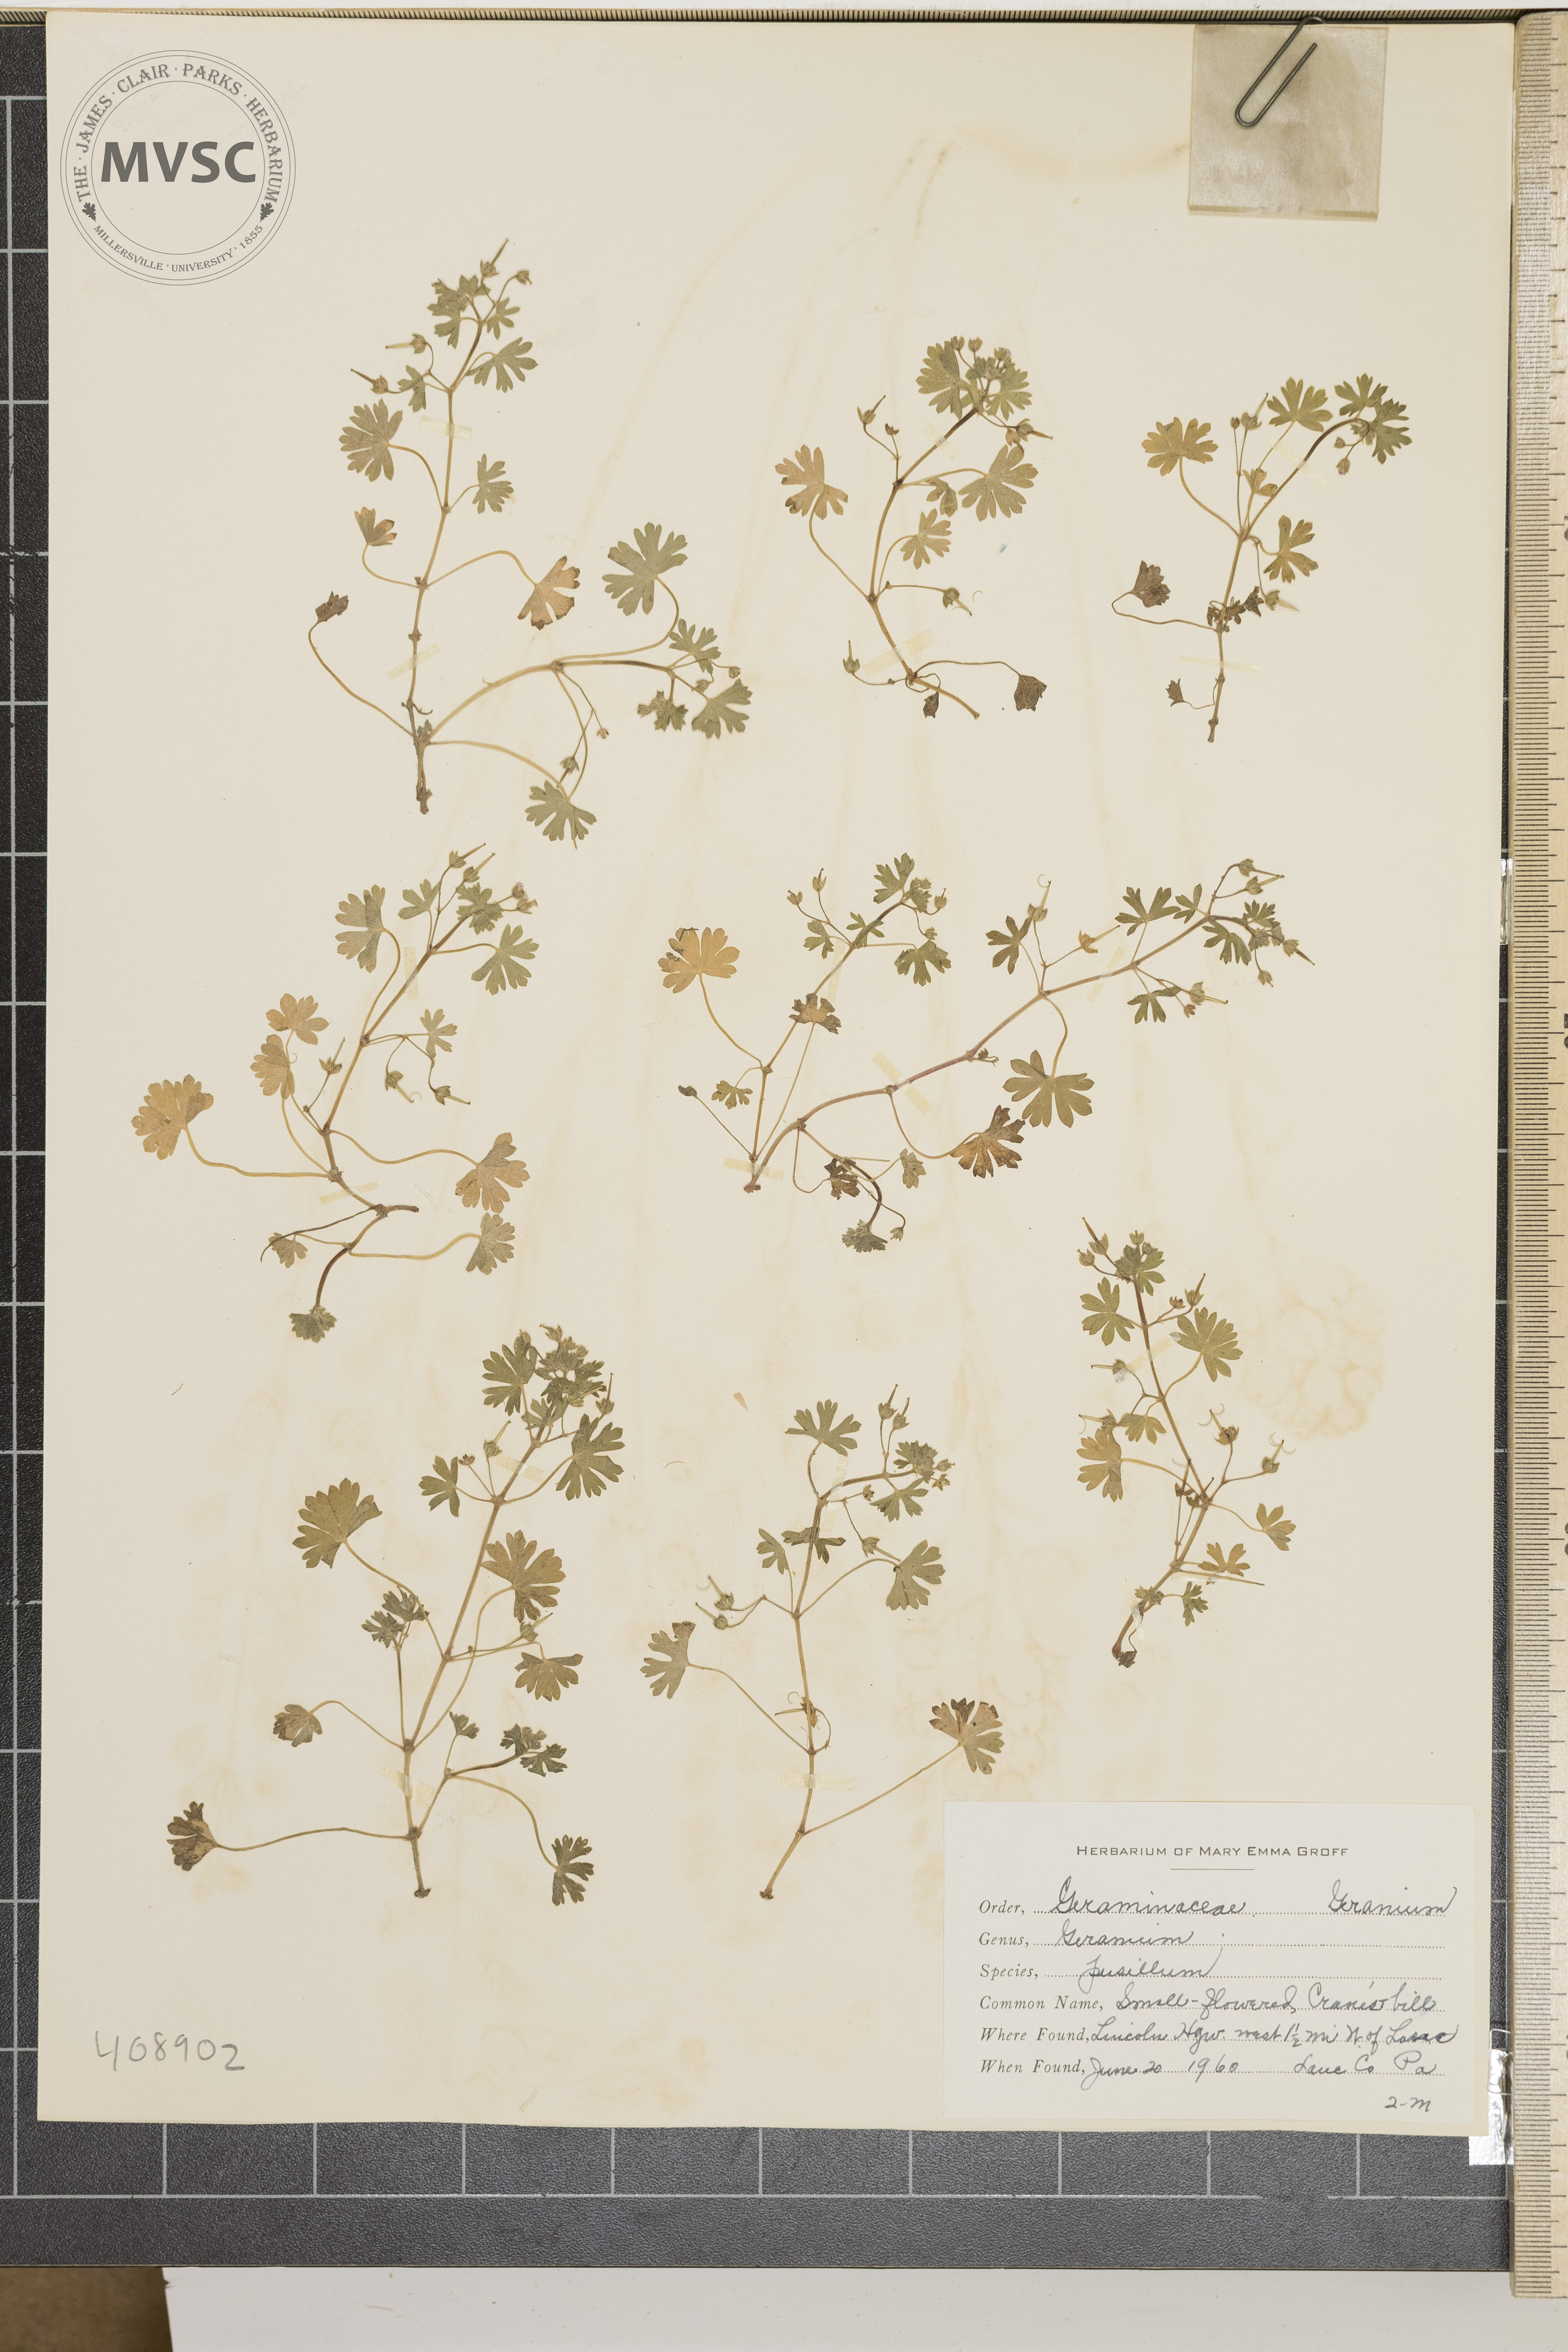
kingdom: Plantae
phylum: Tracheophyta
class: Magnoliopsida
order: Geraniales
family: Geraniaceae
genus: Geranium
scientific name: Geranium pusillum
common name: Small geranium
